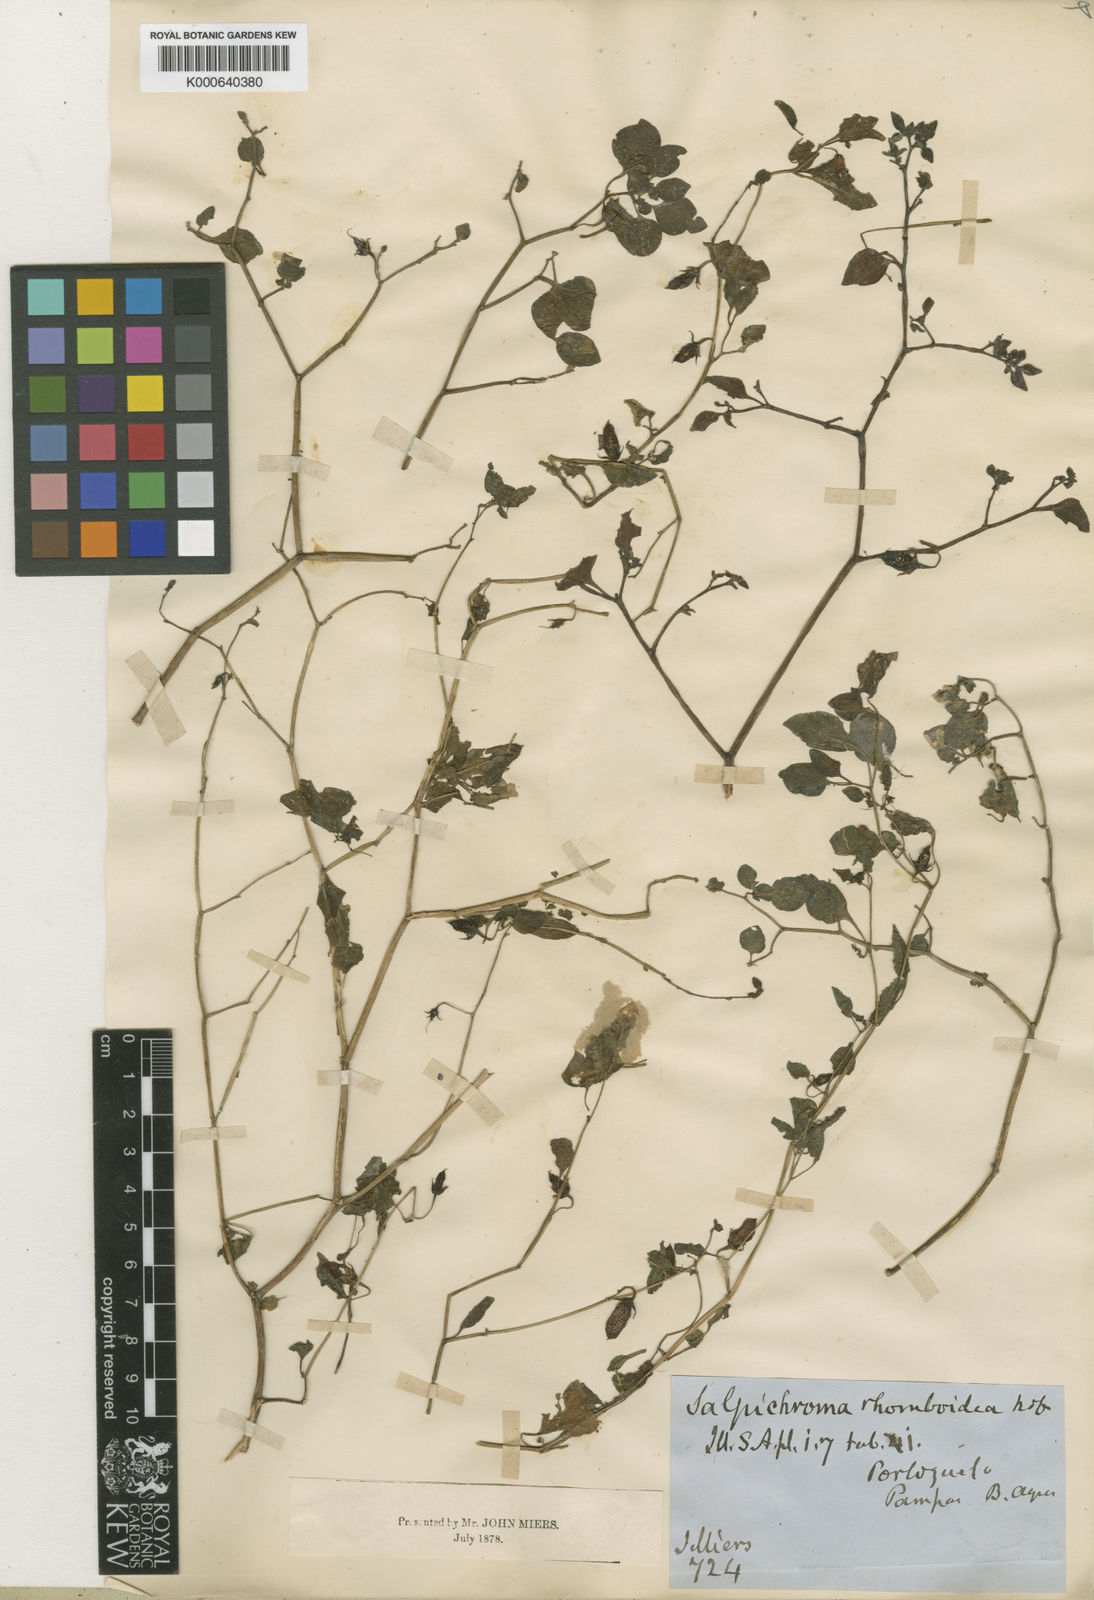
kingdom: Plantae
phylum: Tracheophyta
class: Magnoliopsida
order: Solanales
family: Solanaceae
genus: Salpichroa
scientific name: Salpichroa origanifolia
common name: Lily-of-the-valley-vine
